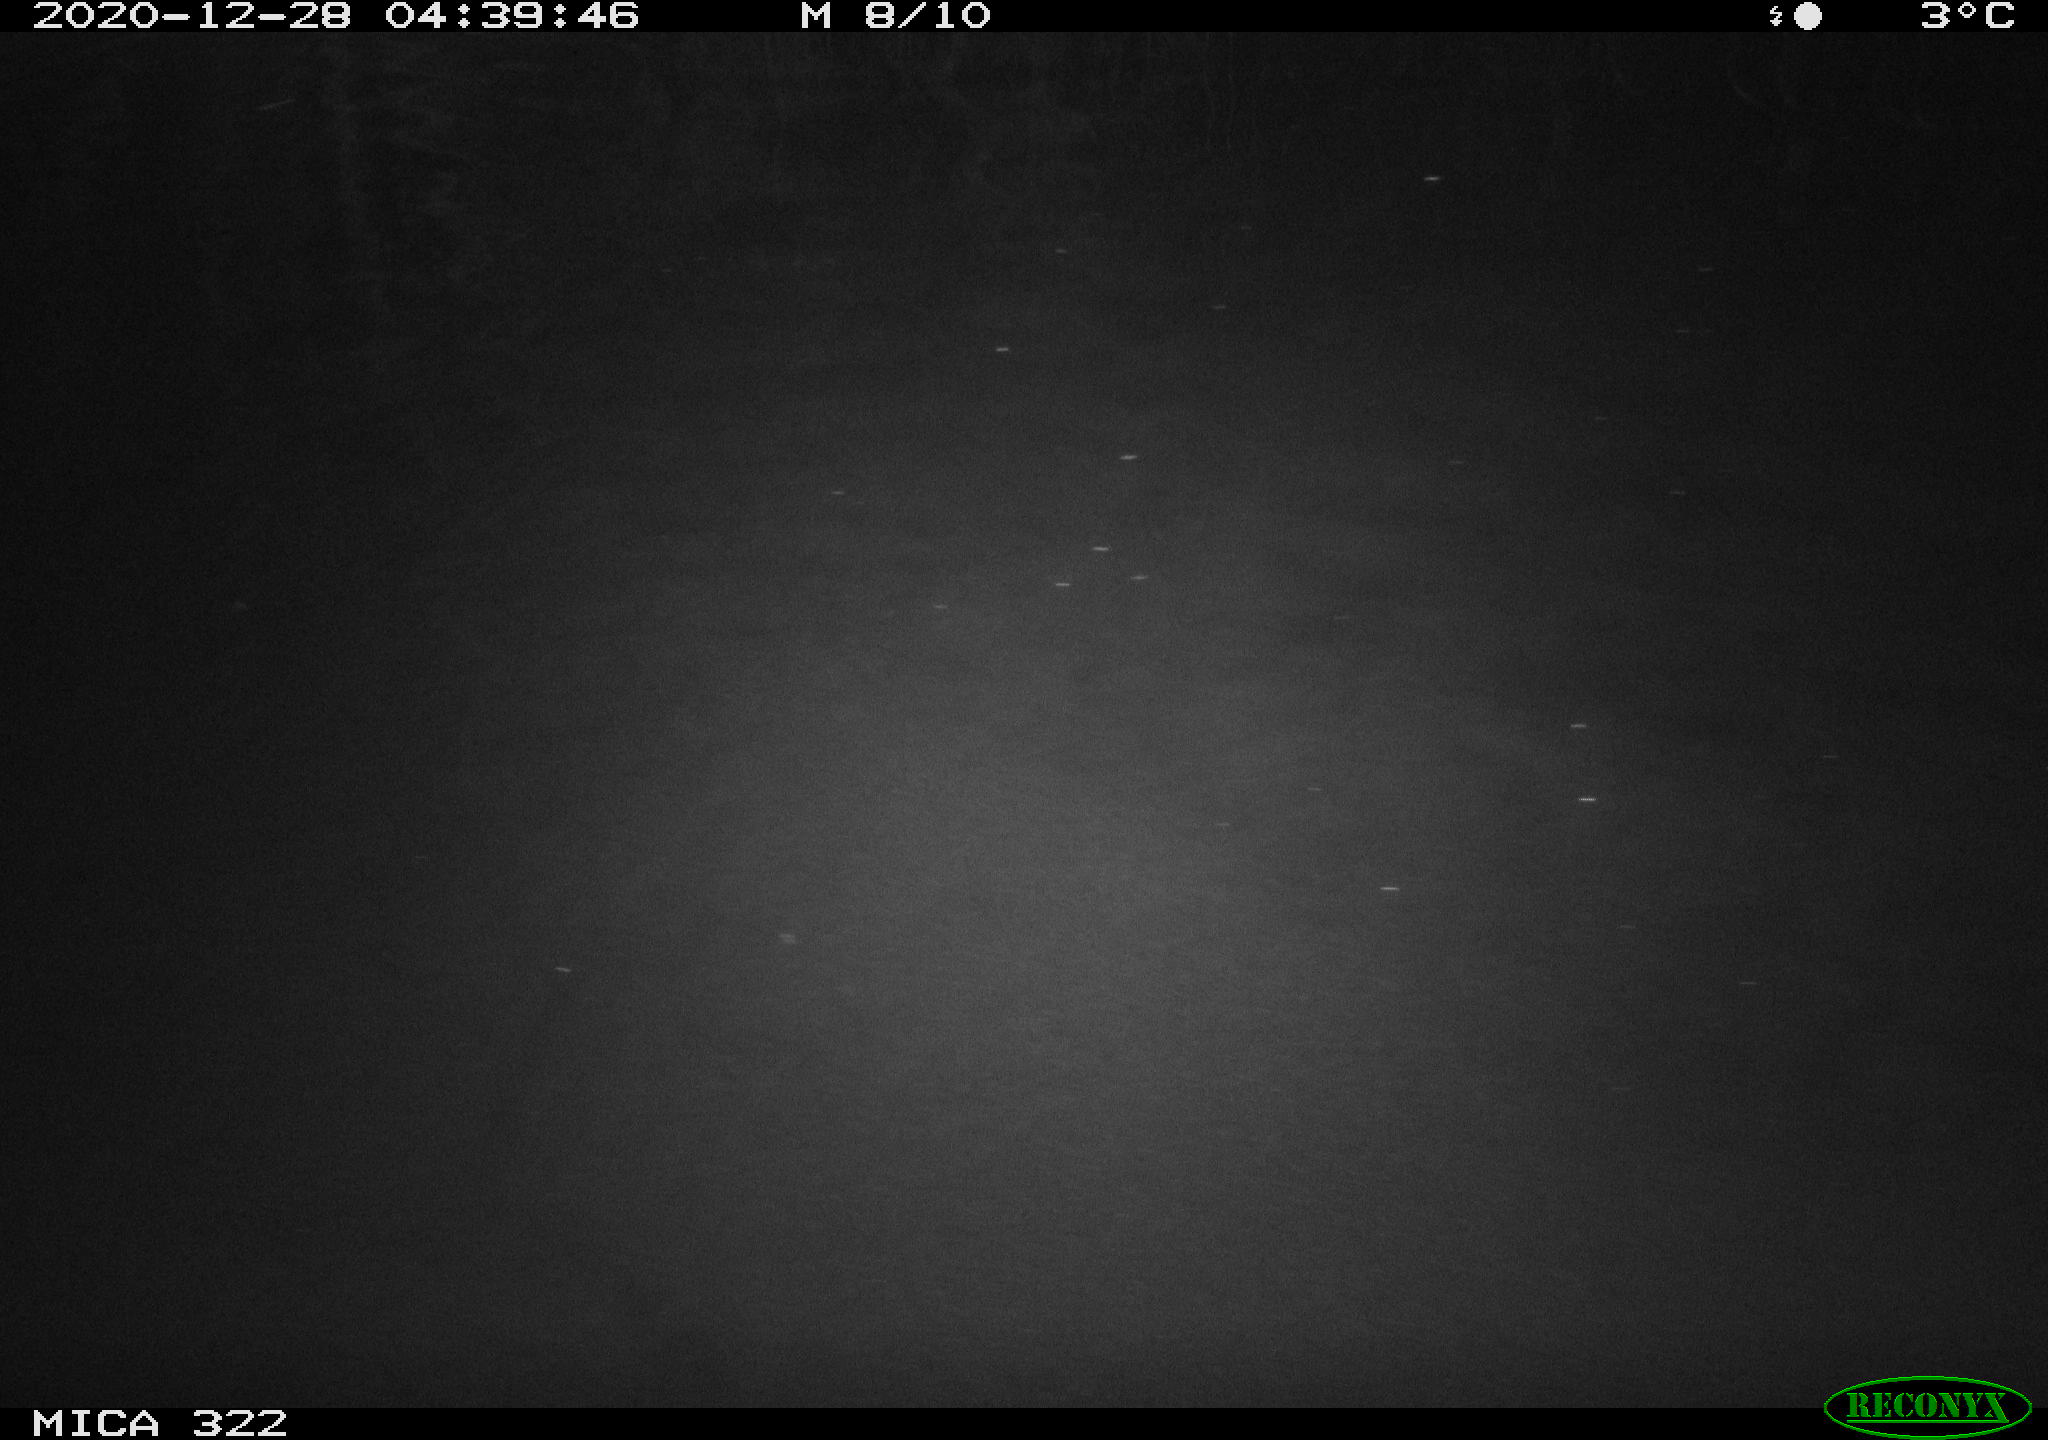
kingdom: Animalia
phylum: Chordata
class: Mammalia
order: Rodentia
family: Muridae
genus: Rattus
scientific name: Rattus norvegicus
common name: Brown rat
